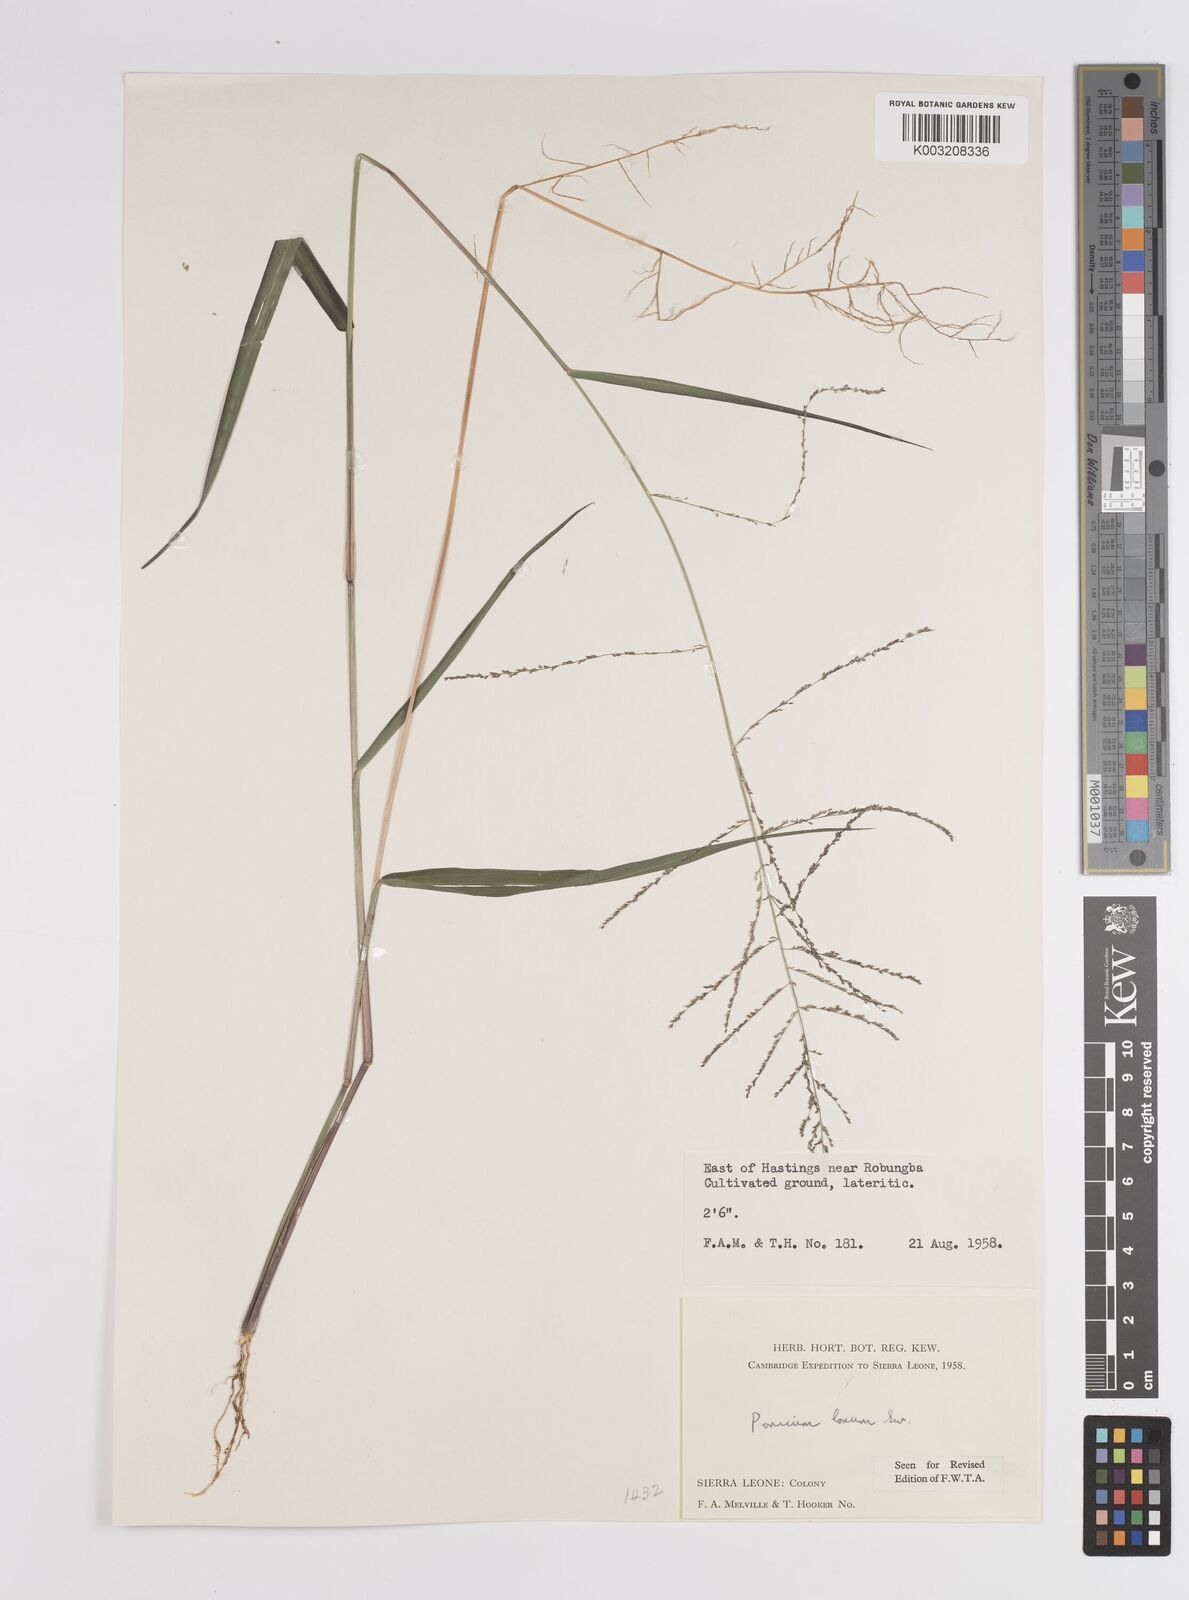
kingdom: Plantae
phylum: Tracheophyta
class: Liliopsida
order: Poales
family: Poaceae
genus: Steinchisma
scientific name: Steinchisma laxum
